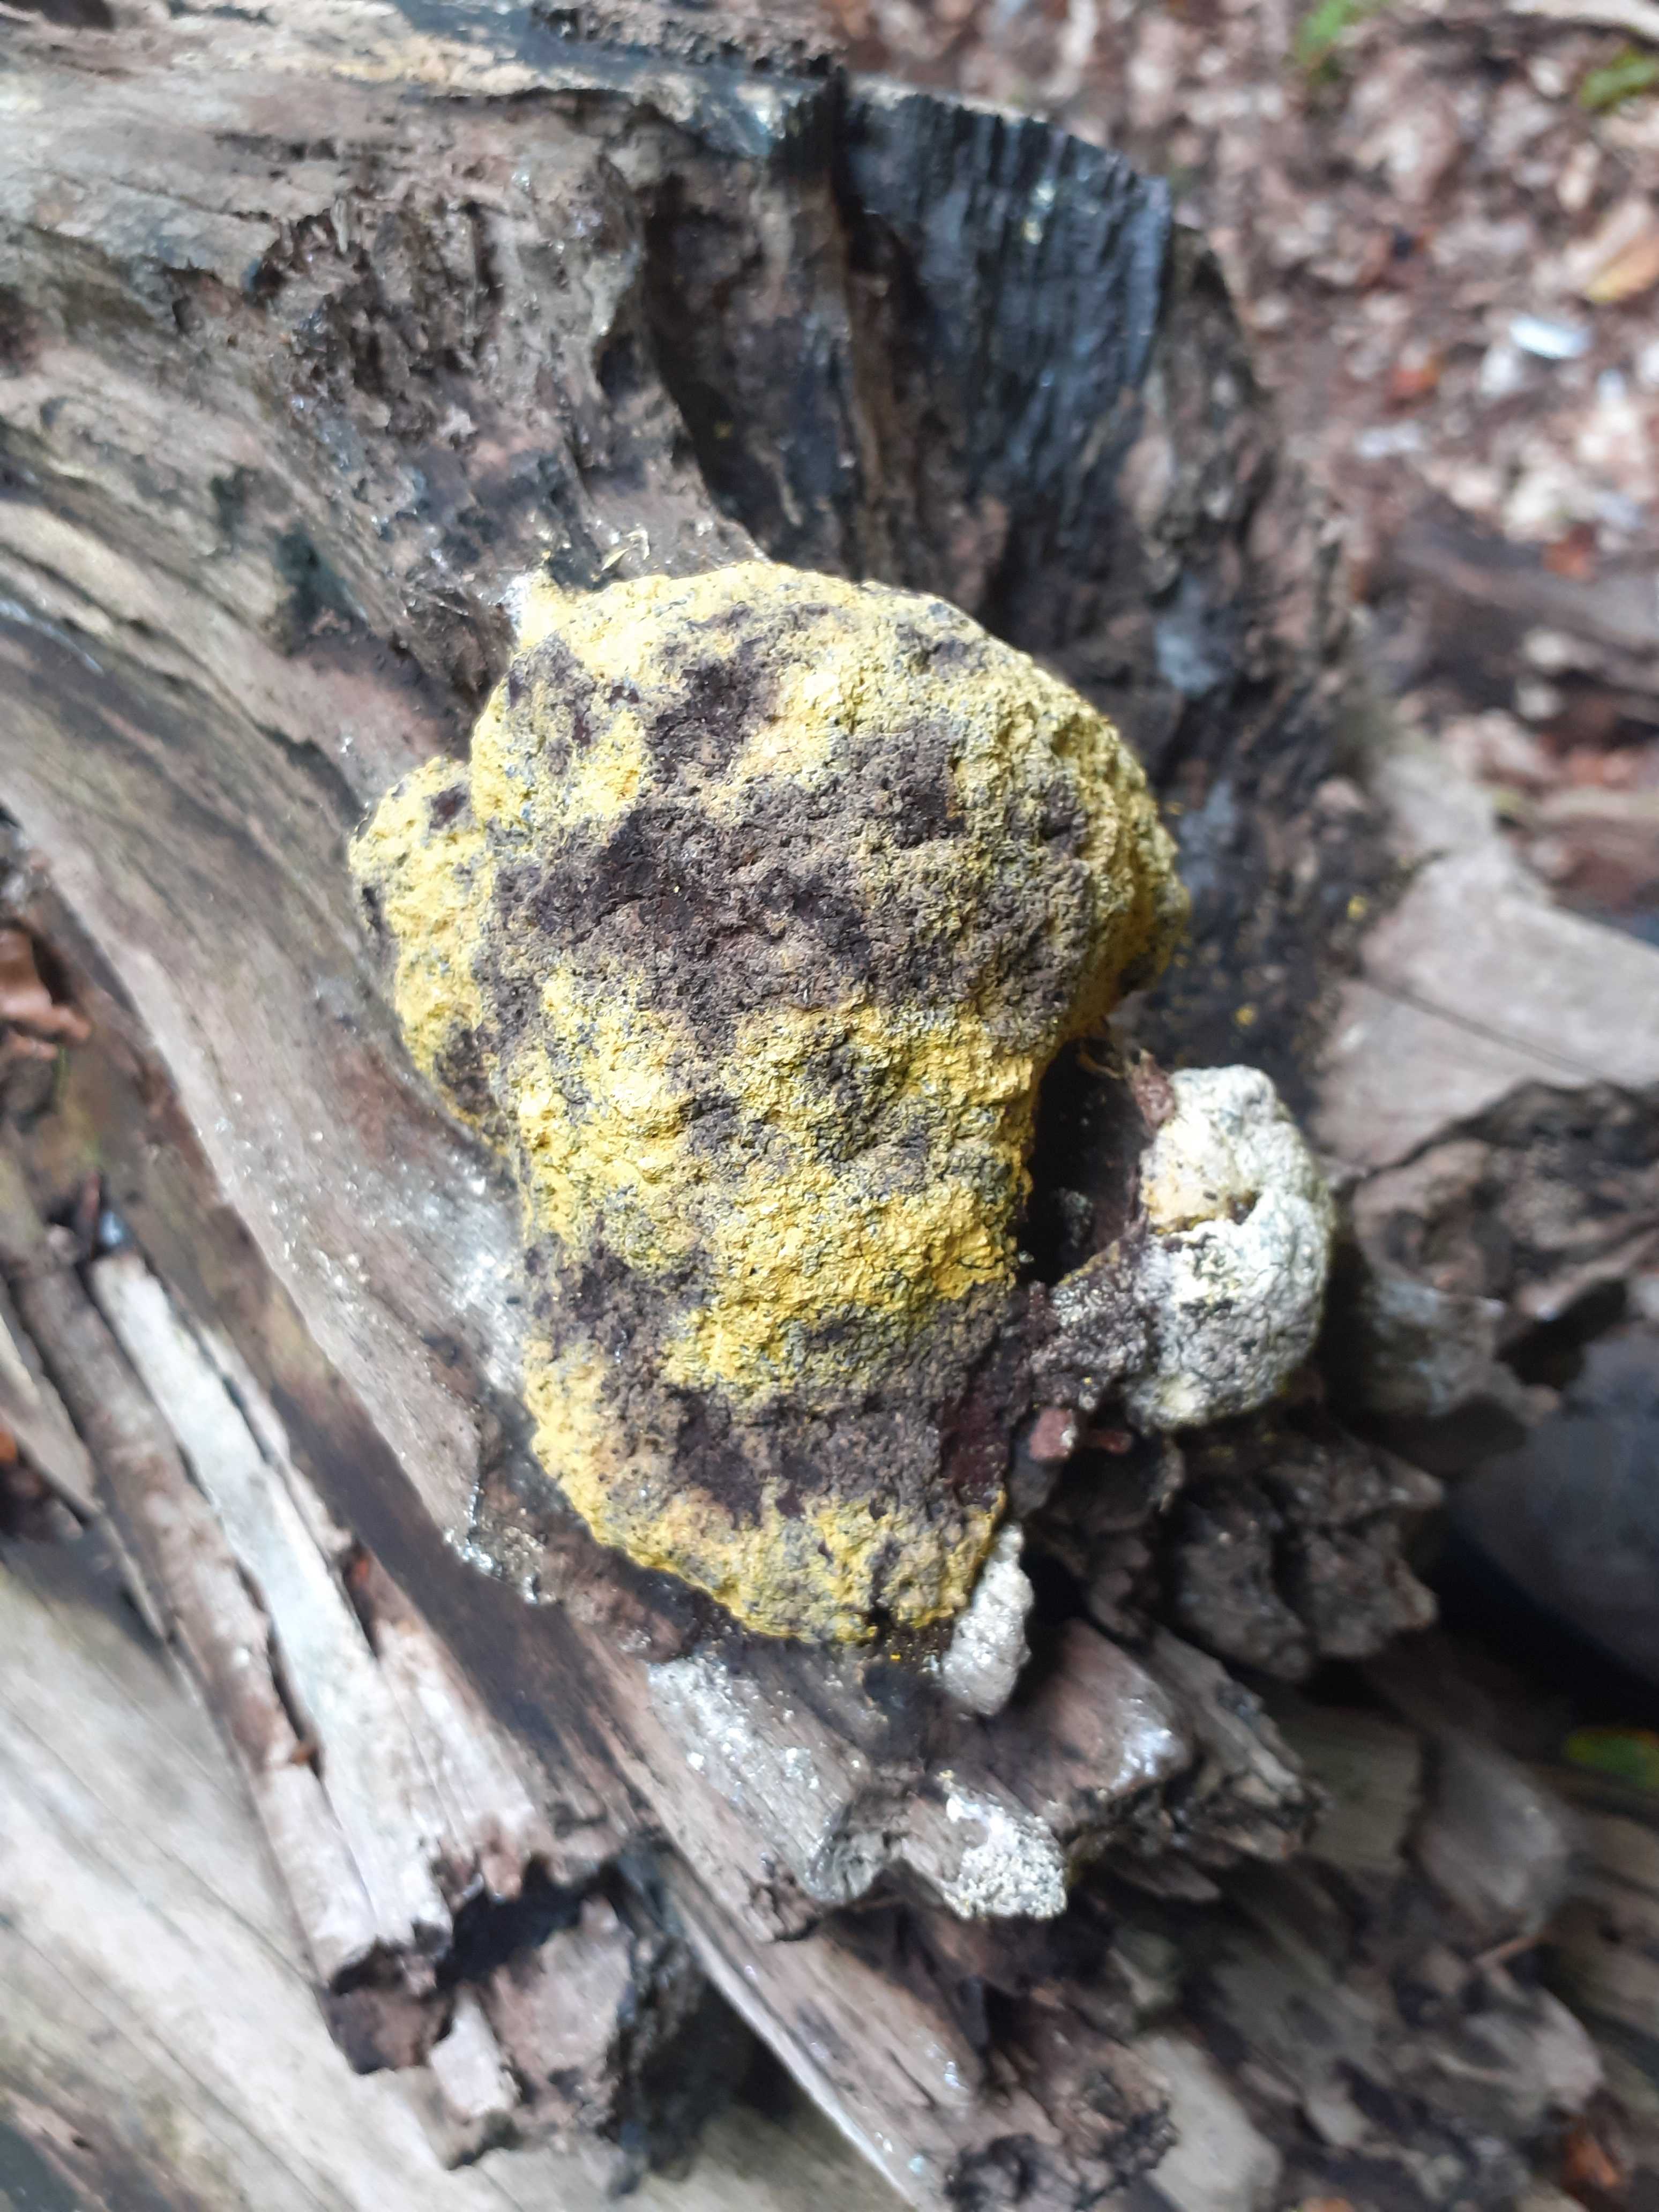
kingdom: Protozoa
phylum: Mycetozoa
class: Myxomycetes
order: Physarales
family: Physaraceae
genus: Fuligo
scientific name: Fuligo septica
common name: gul troldsmør
